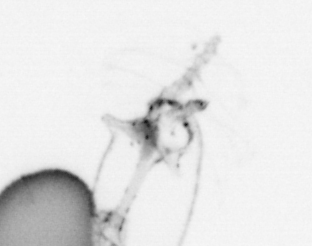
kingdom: Animalia
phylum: Arthropoda
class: Copepoda
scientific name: Copepoda
